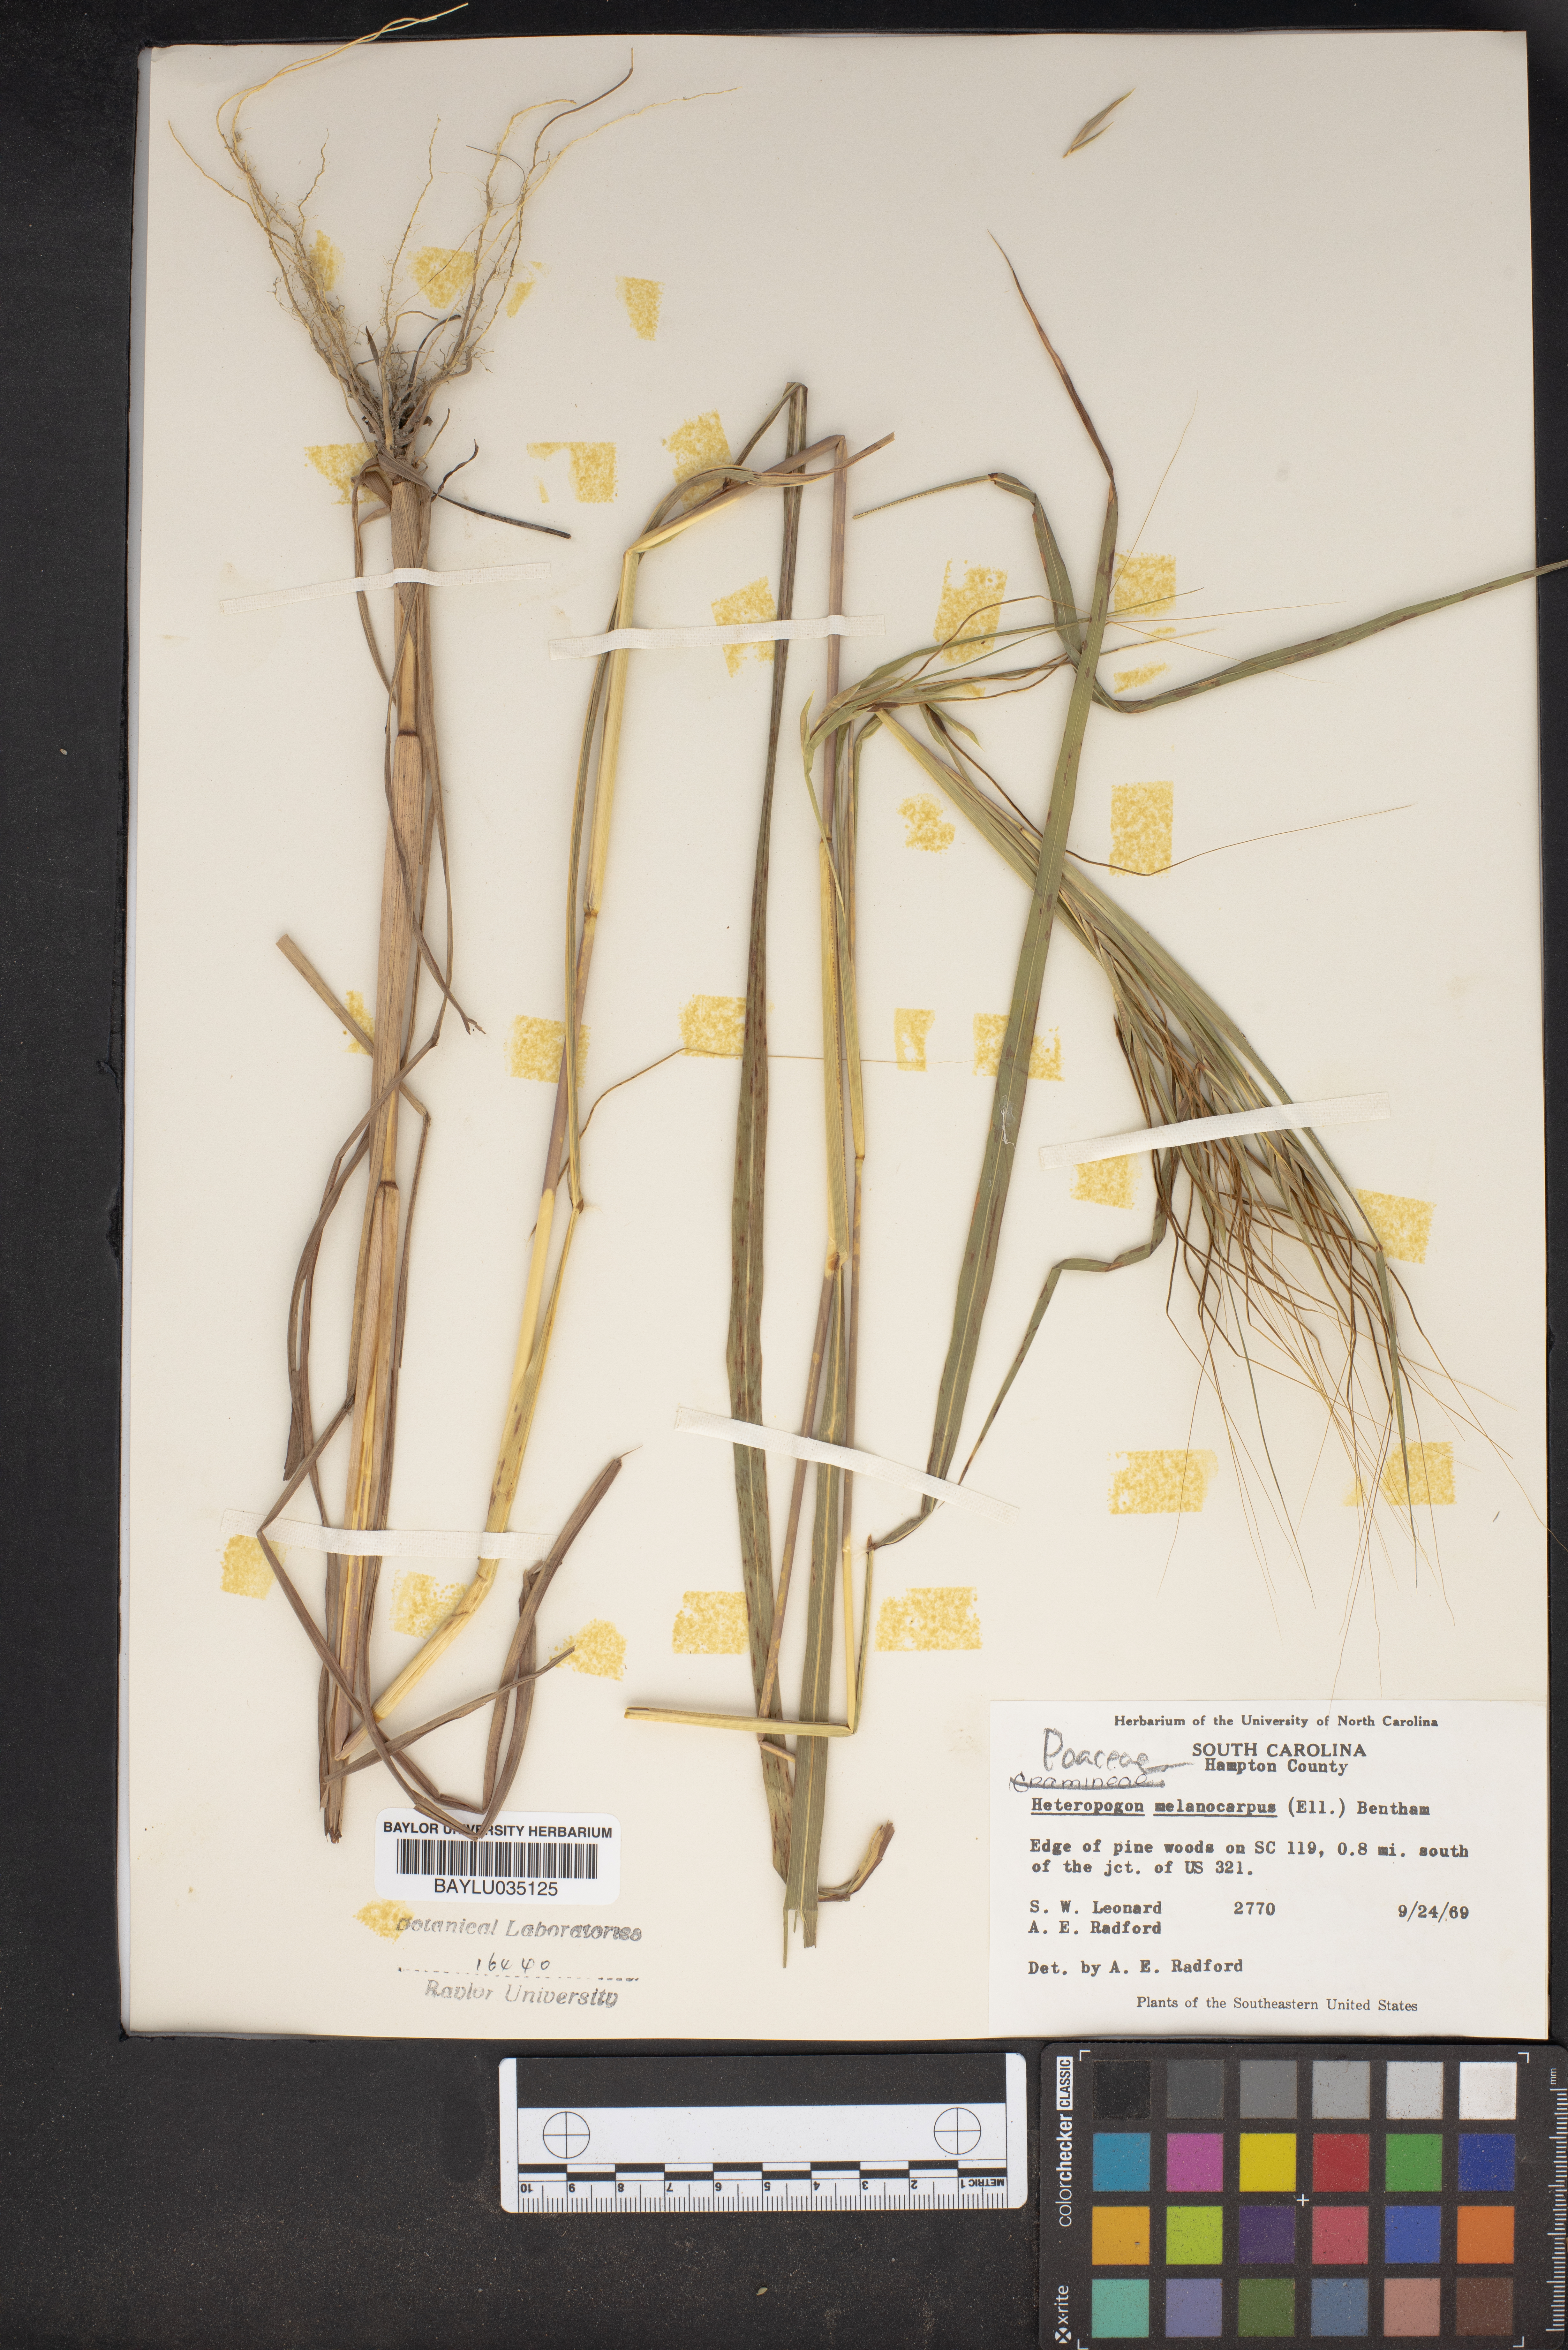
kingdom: Plantae
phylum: Tracheophyta
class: Liliopsida
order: Poales
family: Poaceae
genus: Heteropogon
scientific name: Heteropogon melanocarpus
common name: Sweet tanglehead
